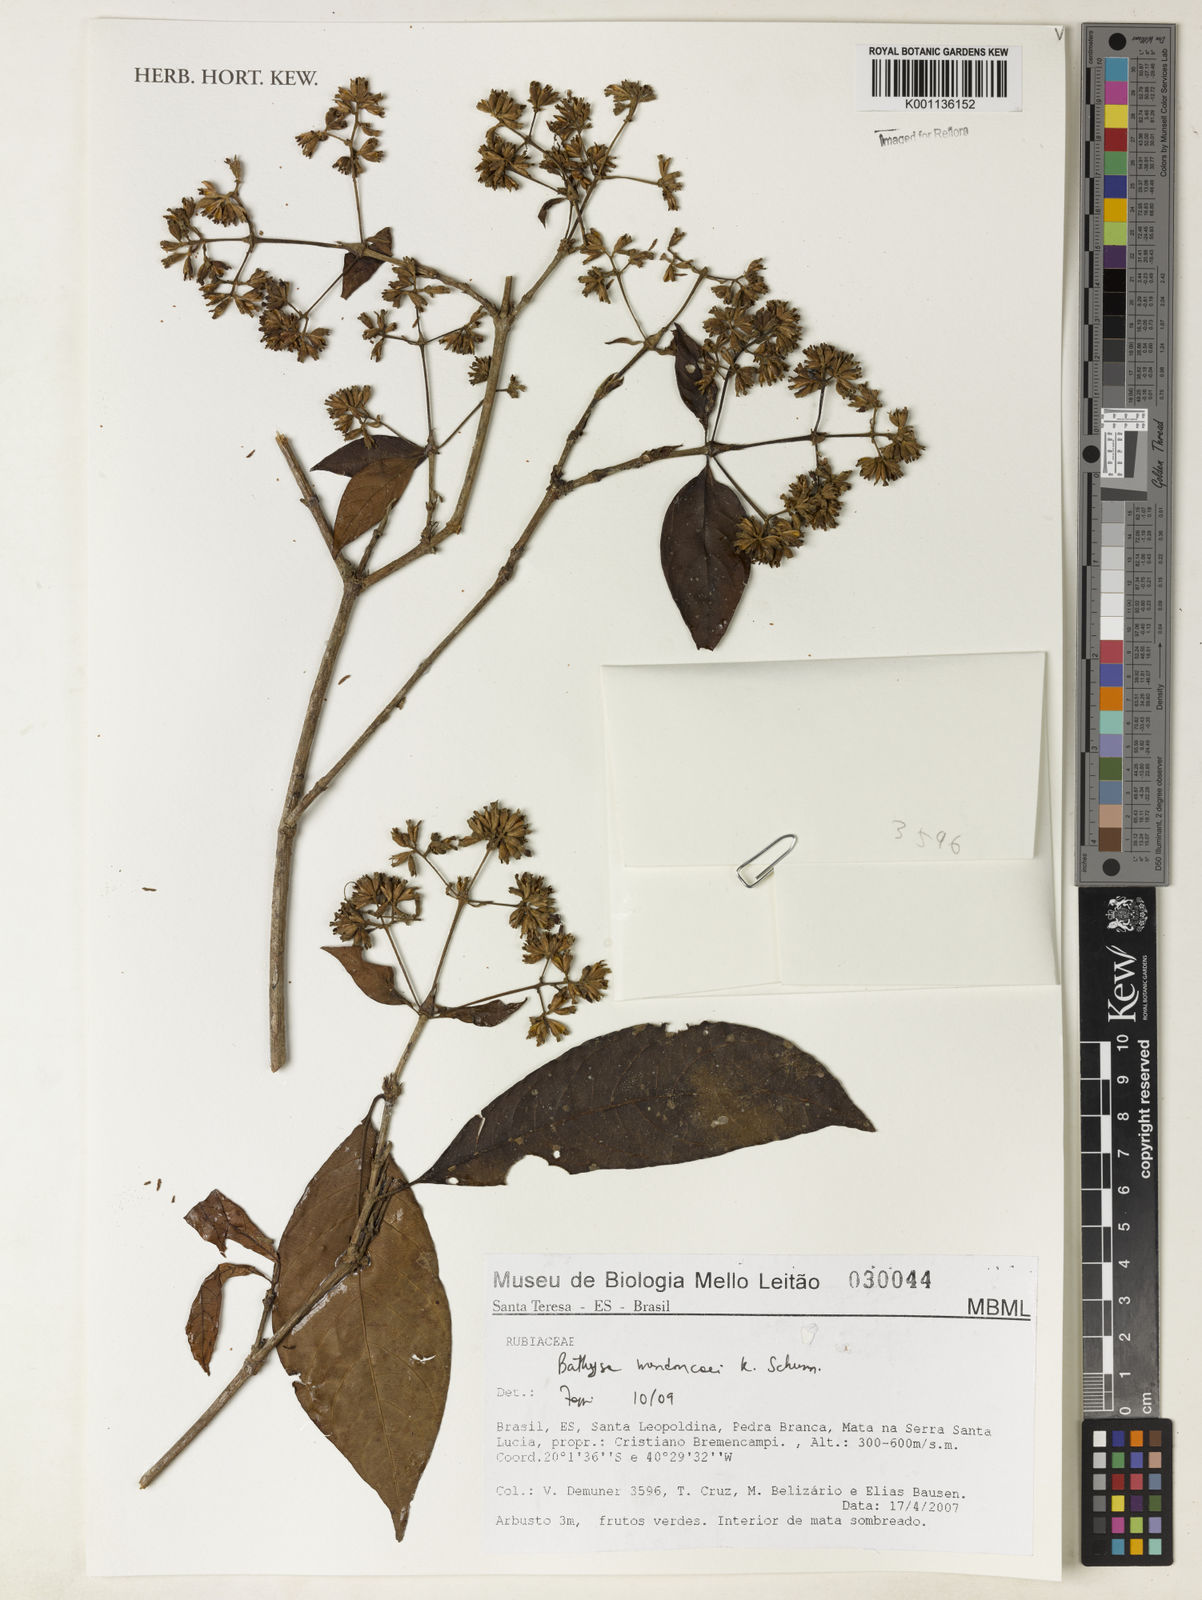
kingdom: Plantae
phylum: Tracheophyta
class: Magnoliopsida
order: Gentianales
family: Rubiaceae
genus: Bathysa
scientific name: Bathysa
